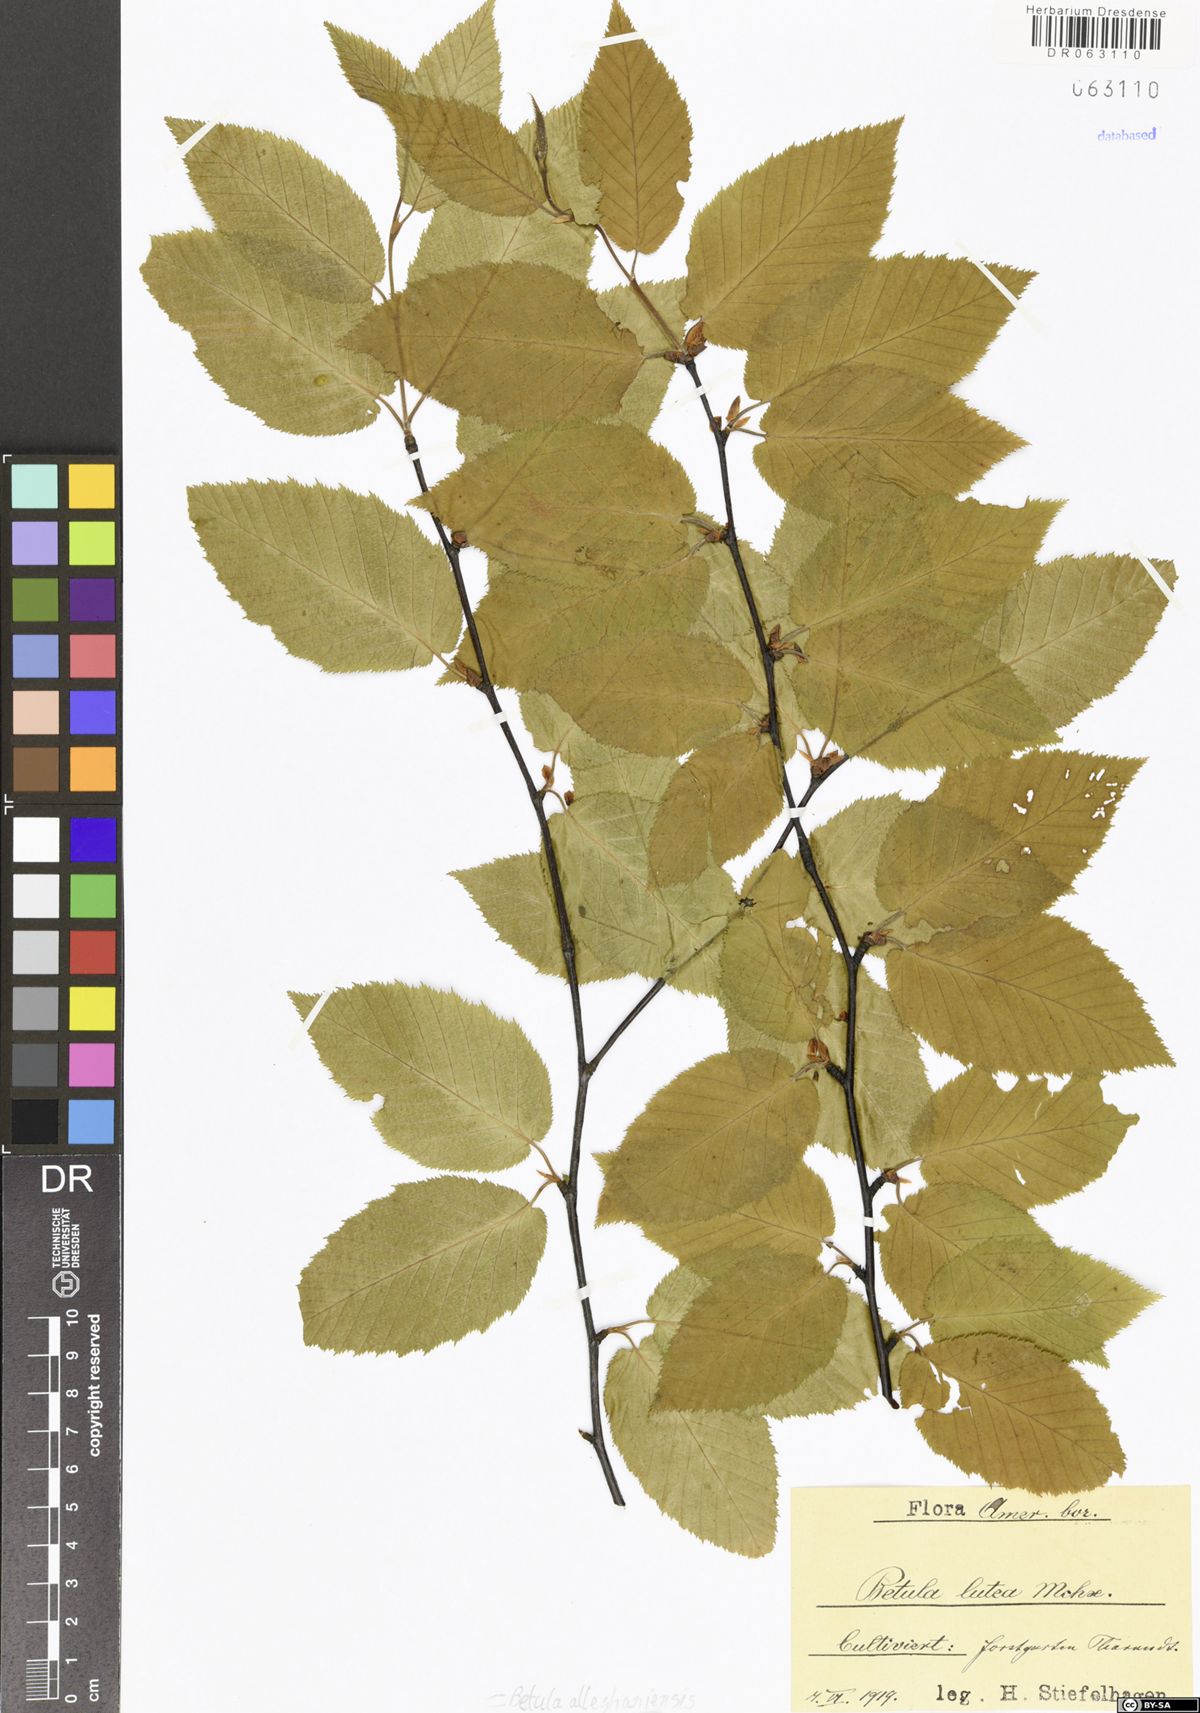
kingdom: Plantae
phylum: Tracheophyta
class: Magnoliopsida
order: Fagales
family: Betulaceae
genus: Betula
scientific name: Betula alleghaniensis
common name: Yellow birch
